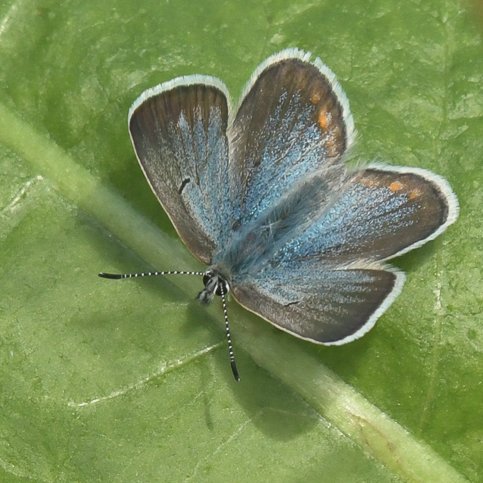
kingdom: Animalia
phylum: Arthropoda
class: Insecta
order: Lepidoptera
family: Lycaenidae
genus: Plebejus
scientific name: Plebejus saepiolus
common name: Greenish Blue
